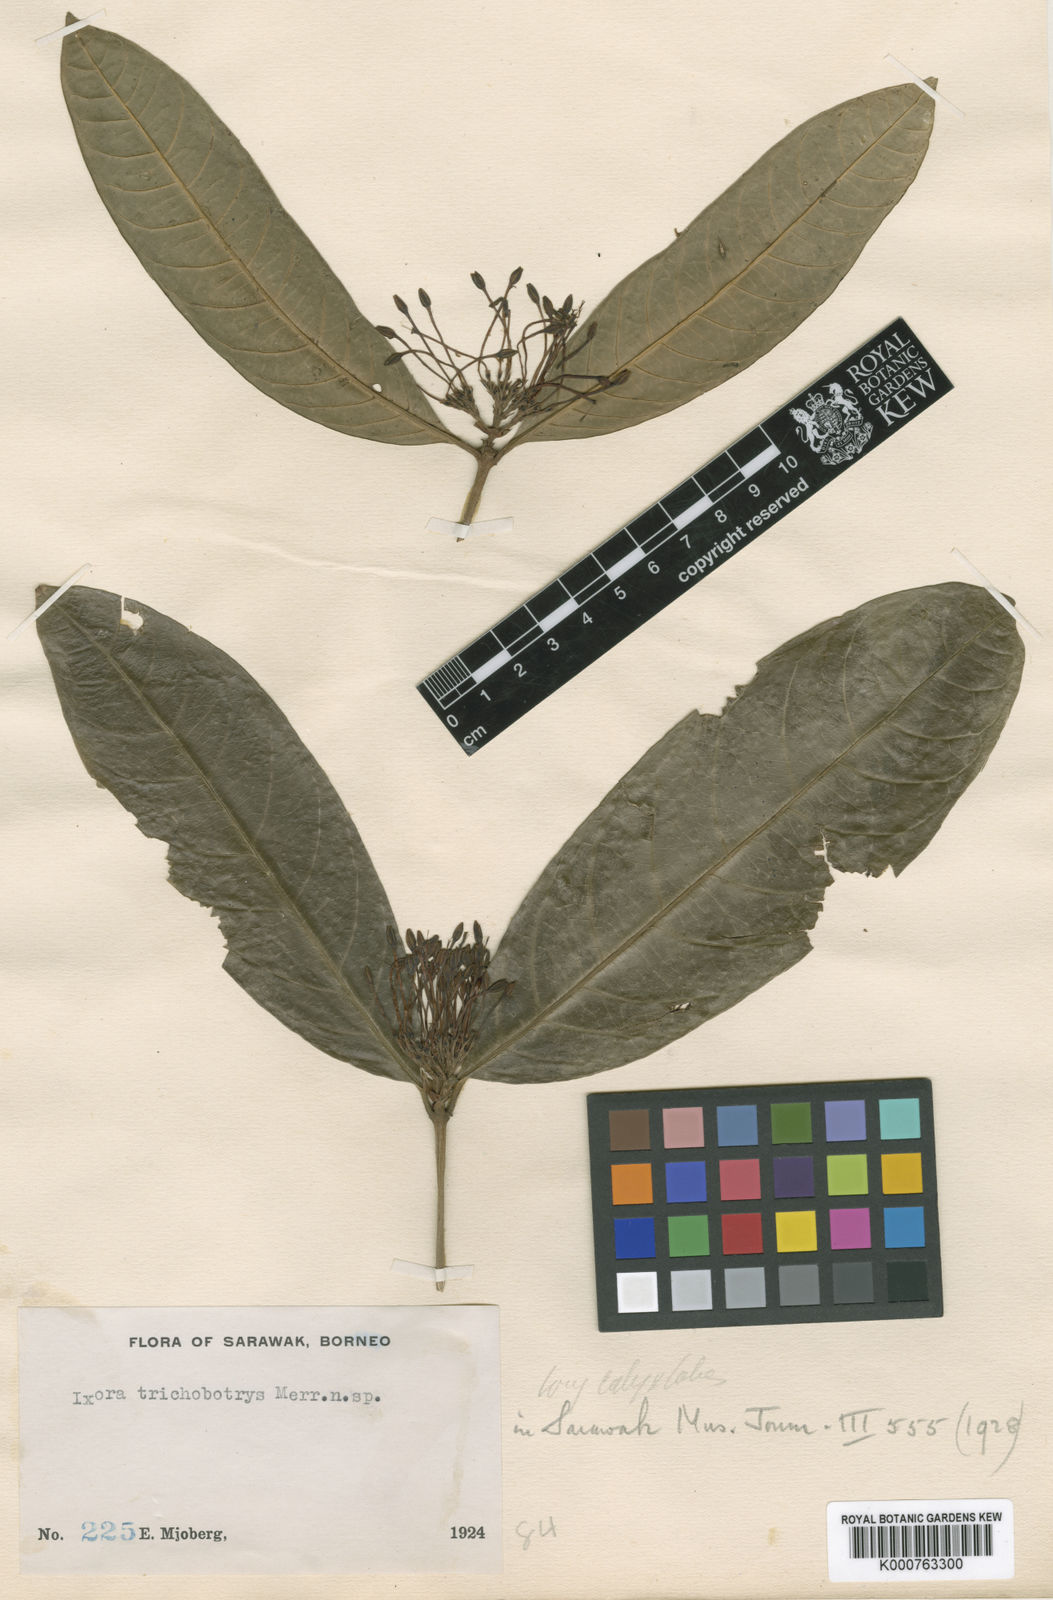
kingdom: Plantae
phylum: Tracheophyta
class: Magnoliopsida
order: Gentianales
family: Rubiaceae
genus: Ixora
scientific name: Ixora trichobotrys
